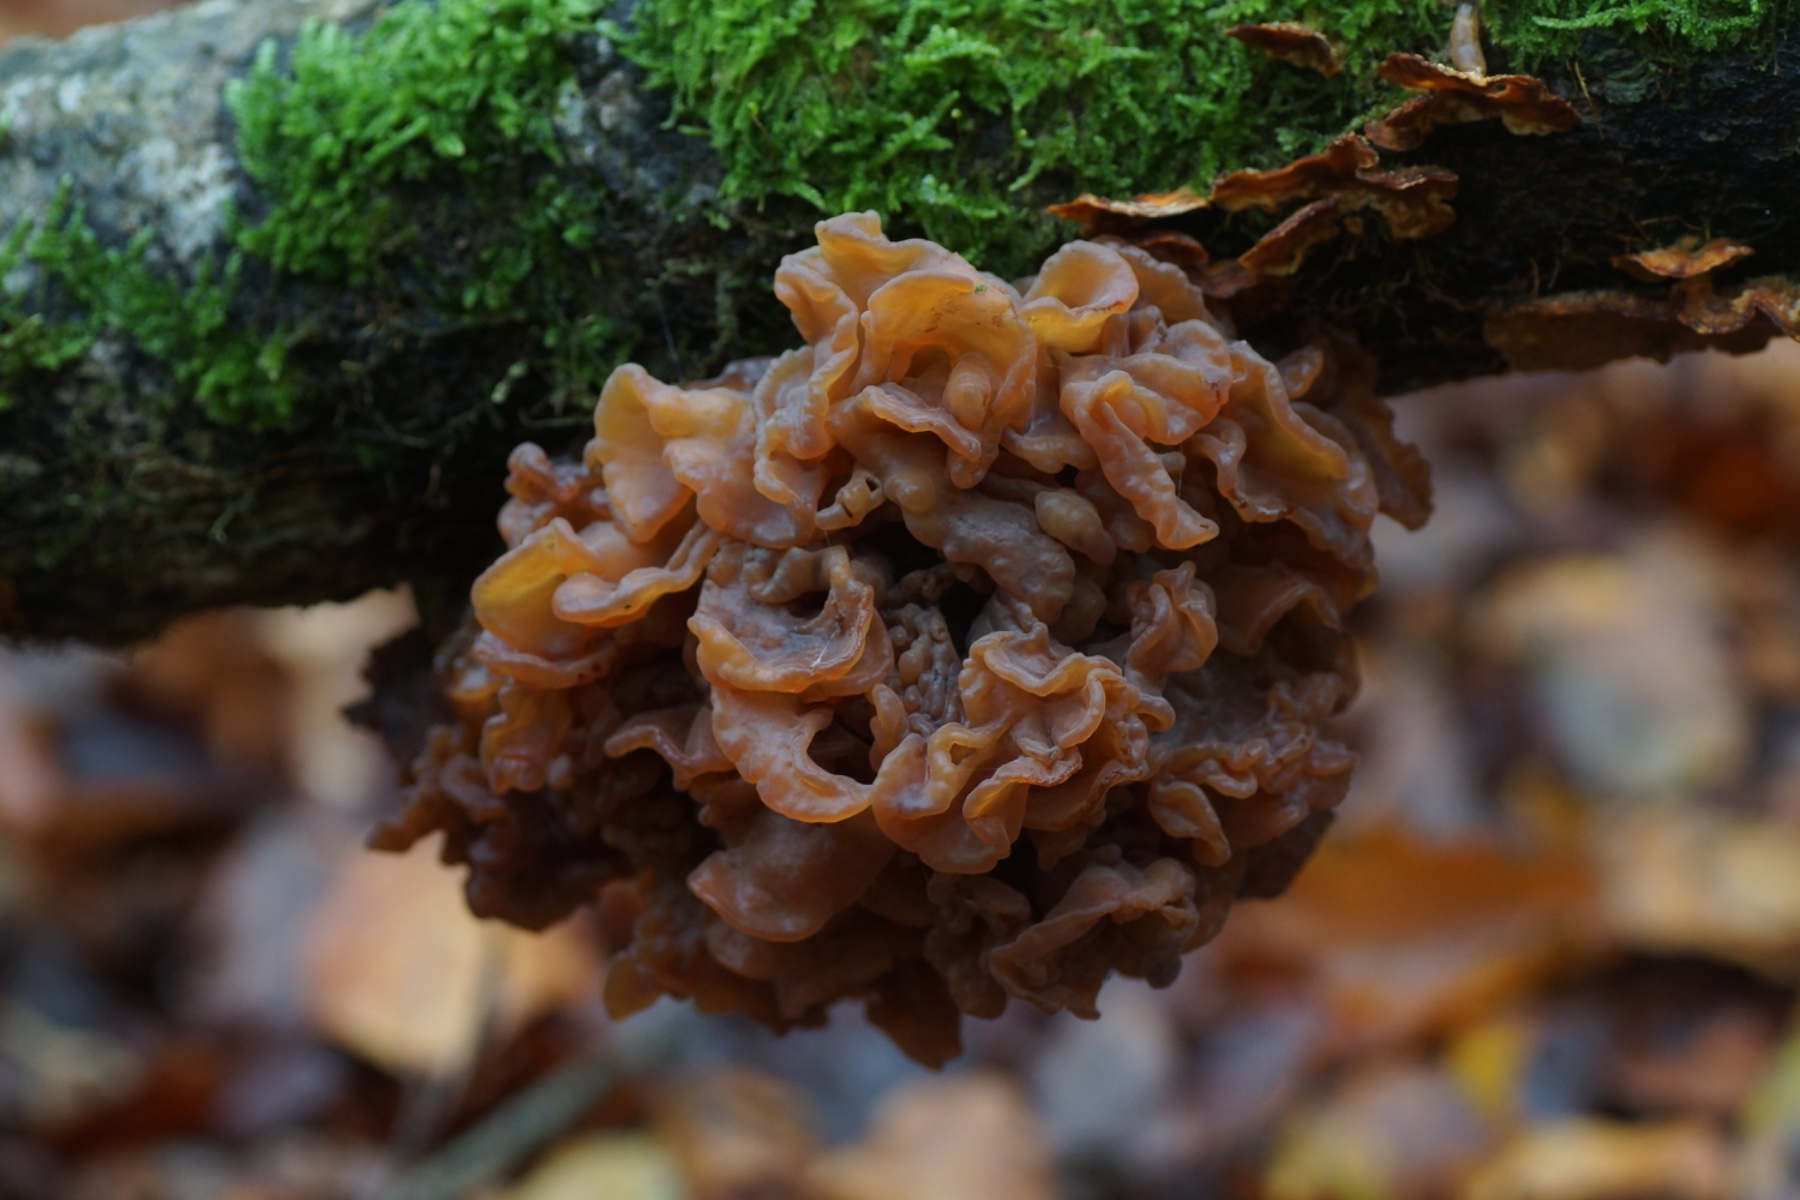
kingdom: Fungi
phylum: Basidiomycota
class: Tremellomycetes
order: Tremellales
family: Tremellaceae
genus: Phaeotremella
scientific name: Phaeotremella frondosa
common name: kæmpe-bævresvamp
